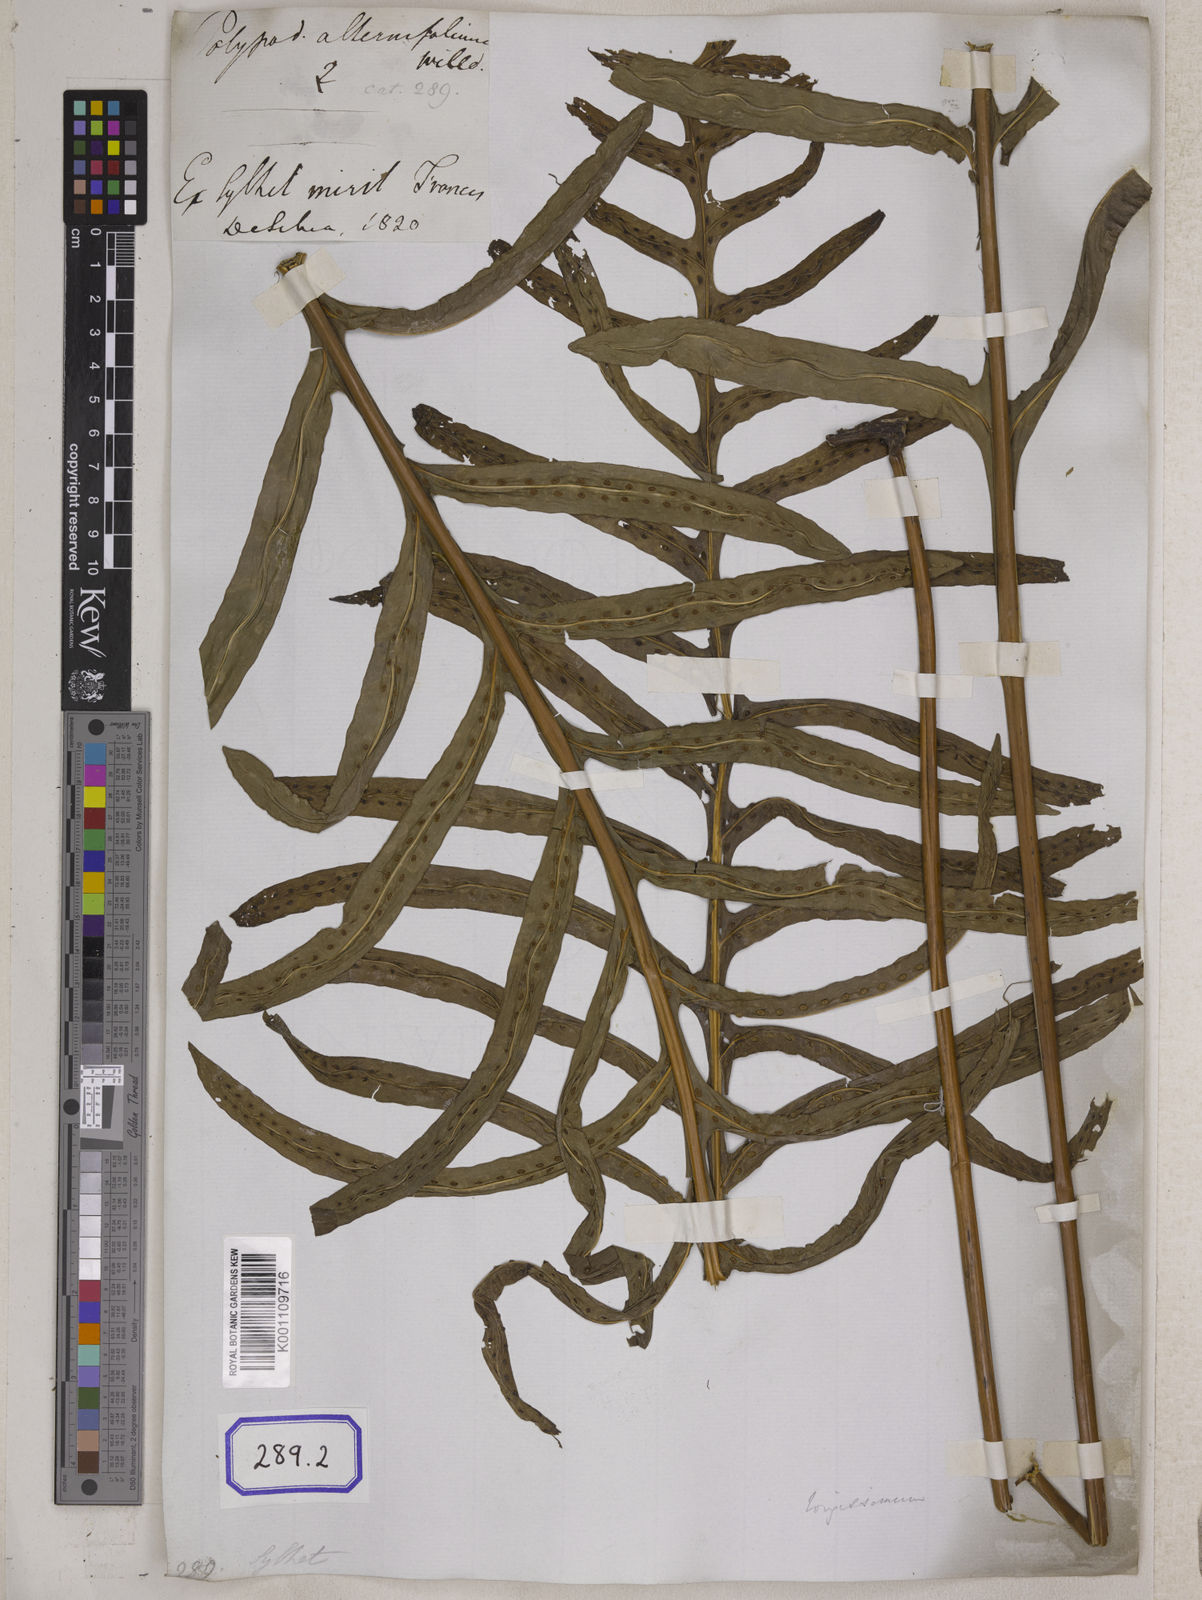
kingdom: Plantae
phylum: Tracheophyta
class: Polypodiopsida
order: Polypodiales
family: Polypodiaceae
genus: Microsorum
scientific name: Microsorum scolopendria
